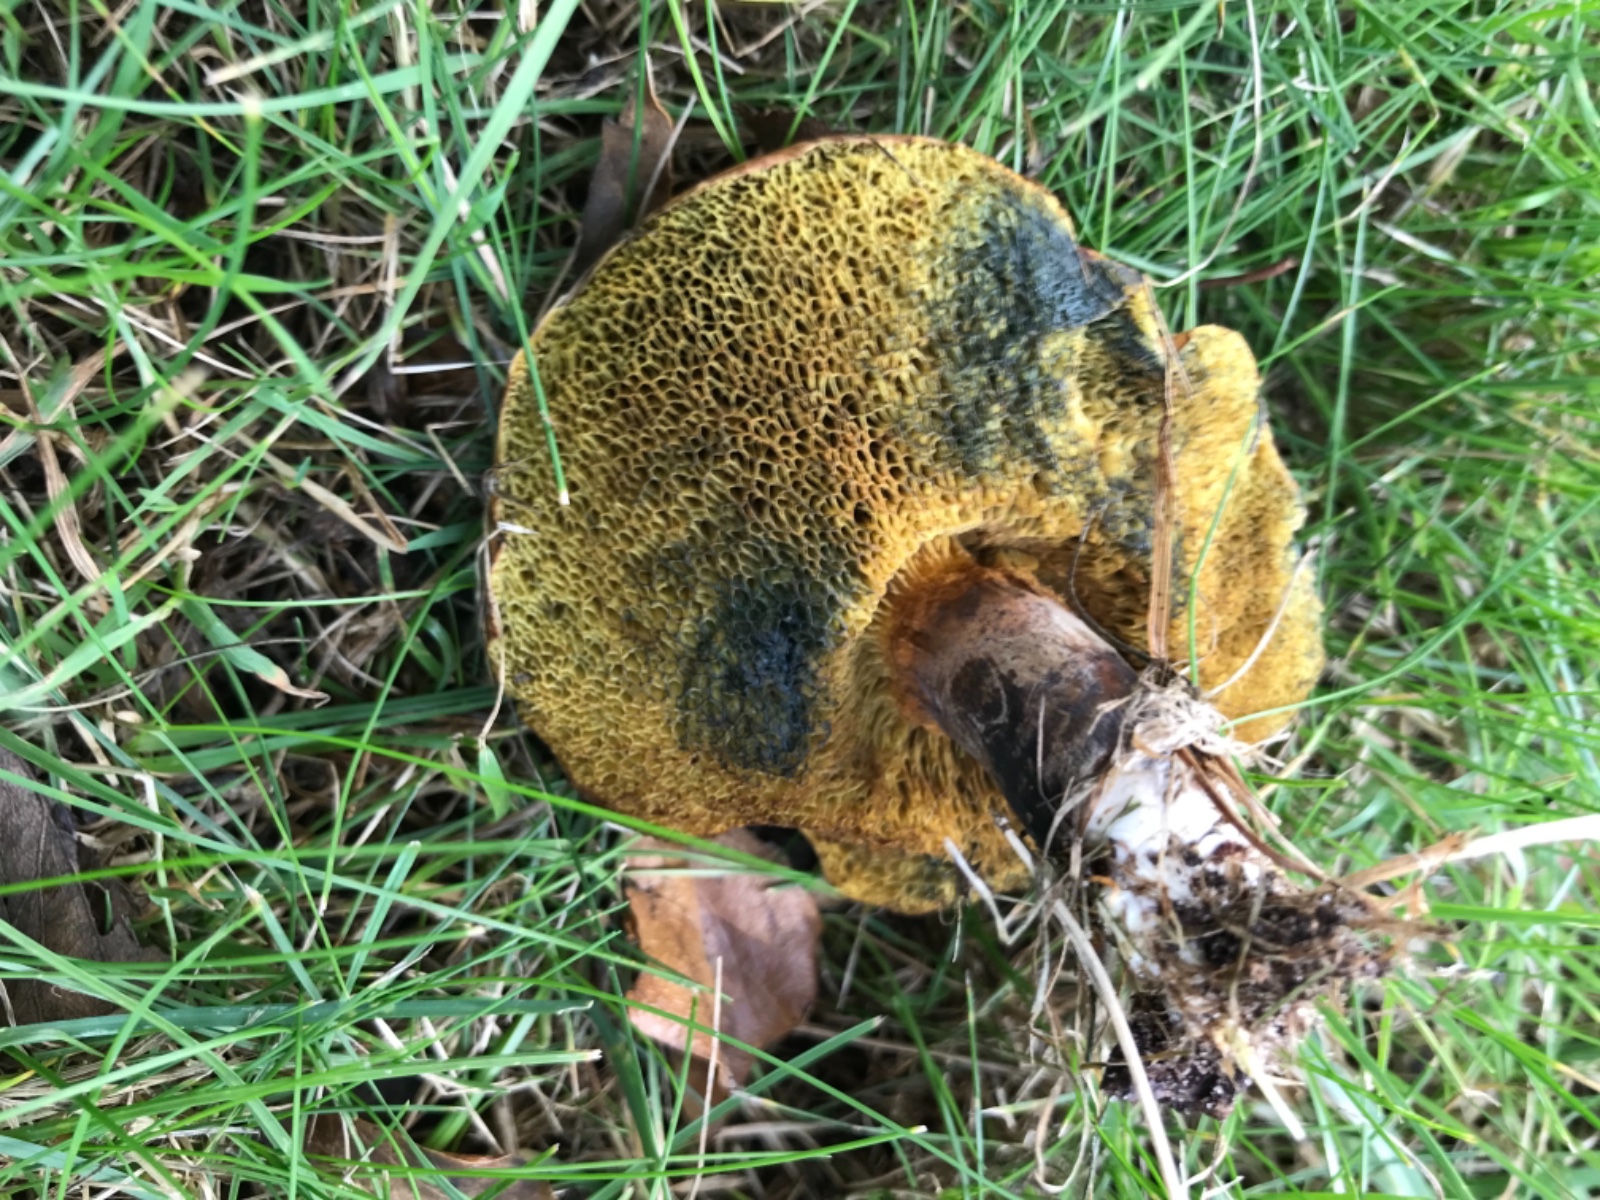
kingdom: Fungi
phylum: Basidiomycota
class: Agaricomycetes
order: Boletales
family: Boletaceae
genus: Cyanoboletus
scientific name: Cyanoboletus pulverulentus
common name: sortblånende rørhat
